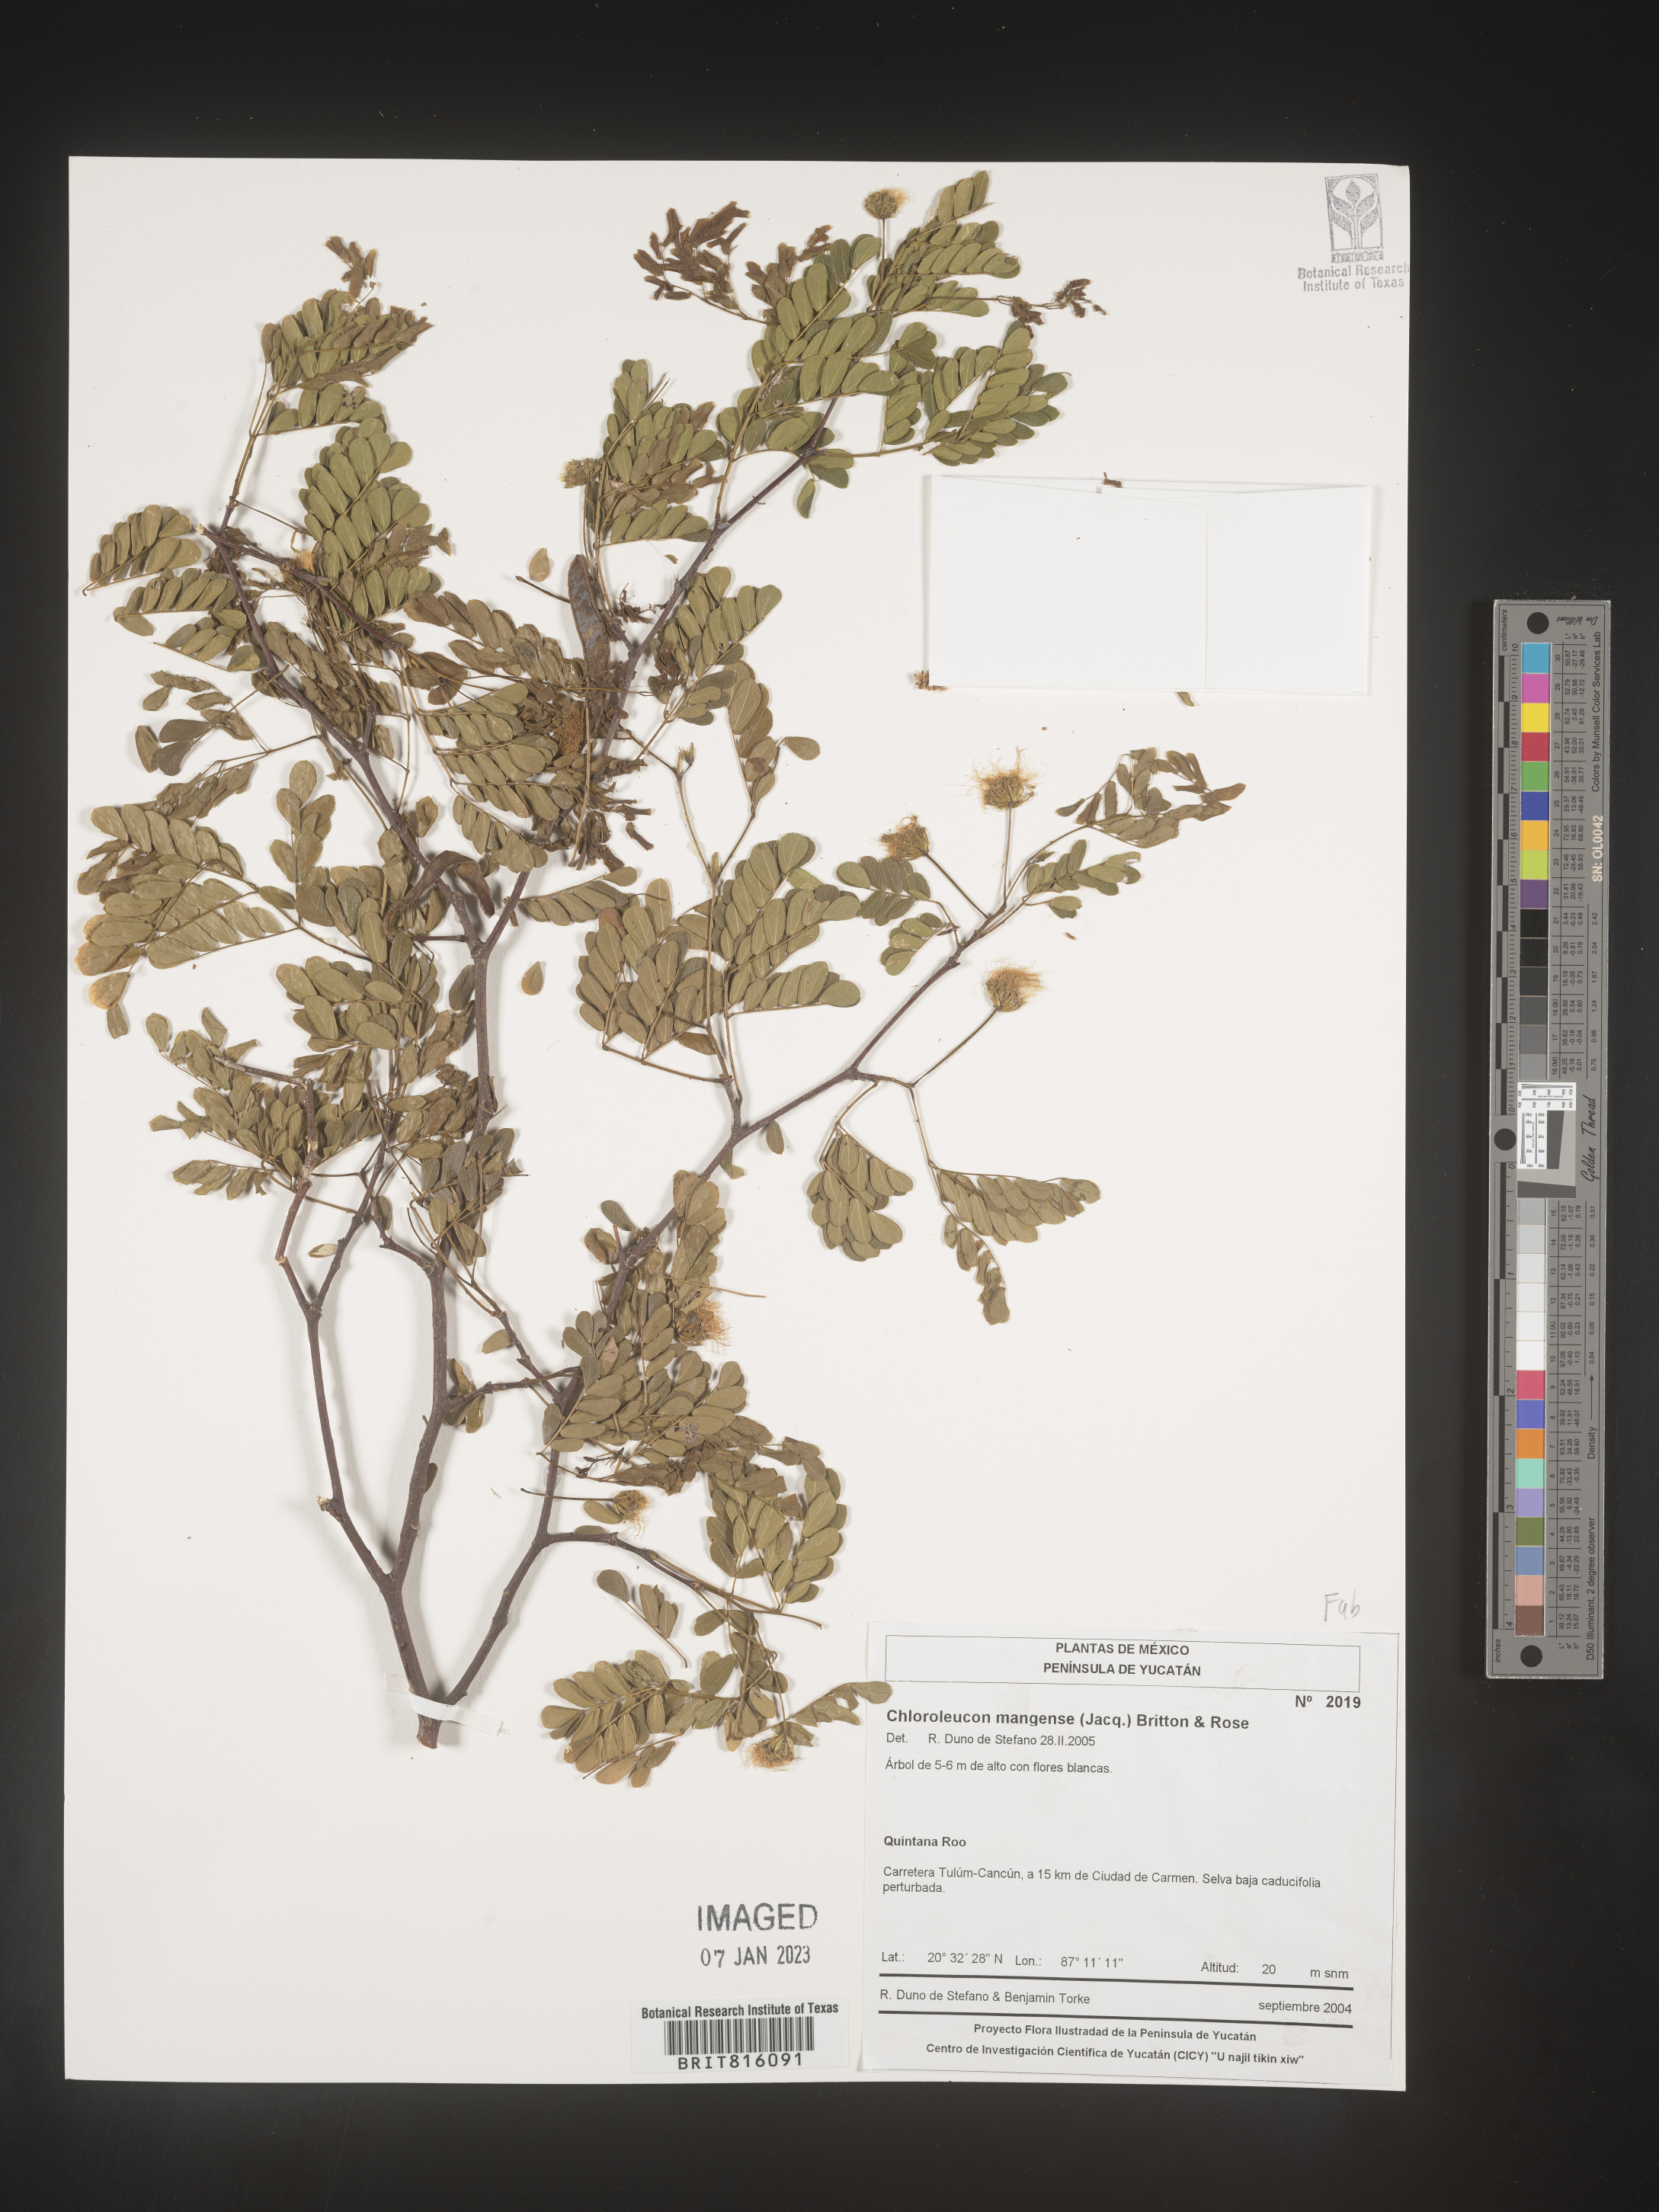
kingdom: Plantae
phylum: Tracheophyta
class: Magnoliopsida
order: Fabales
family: Fabaceae
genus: Chloroleucon
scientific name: Chloroleucon
